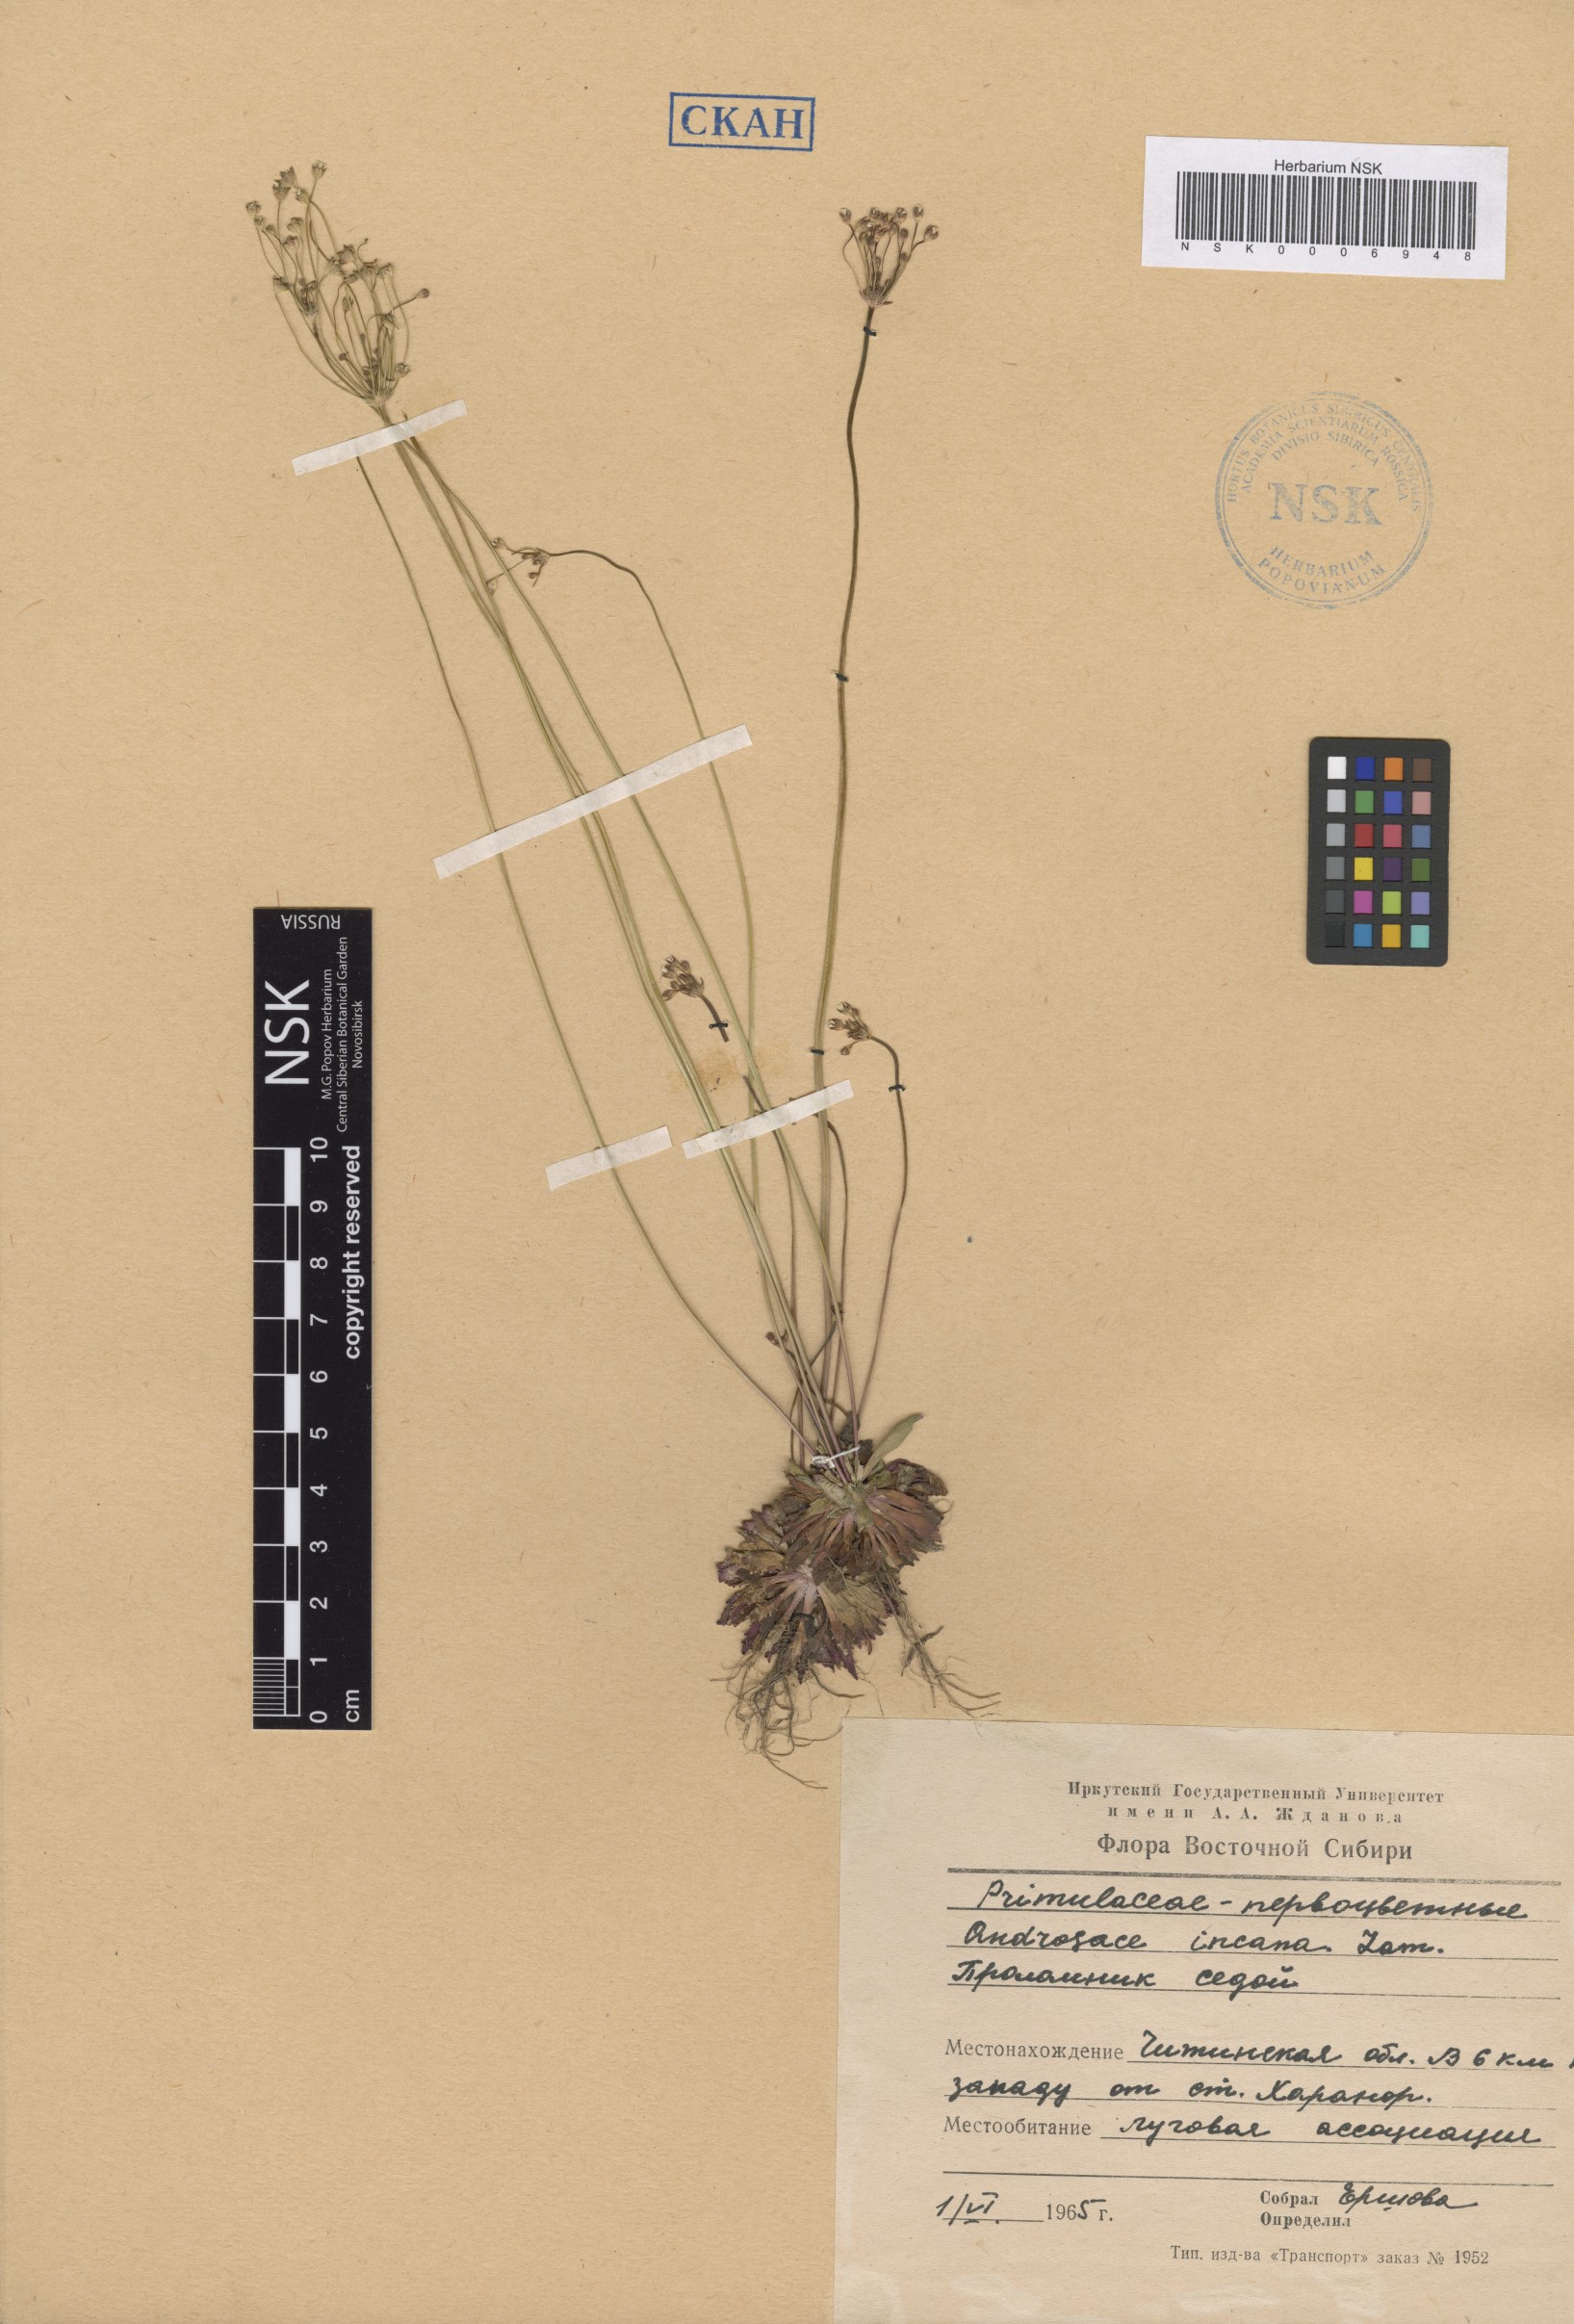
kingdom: Plantae
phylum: Tracheophyta
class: Magnoliopsida
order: Ericales
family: Primulaceae
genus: Androsace
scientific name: Androsace septentrionalis
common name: Hairy northern fairy-candelabra
